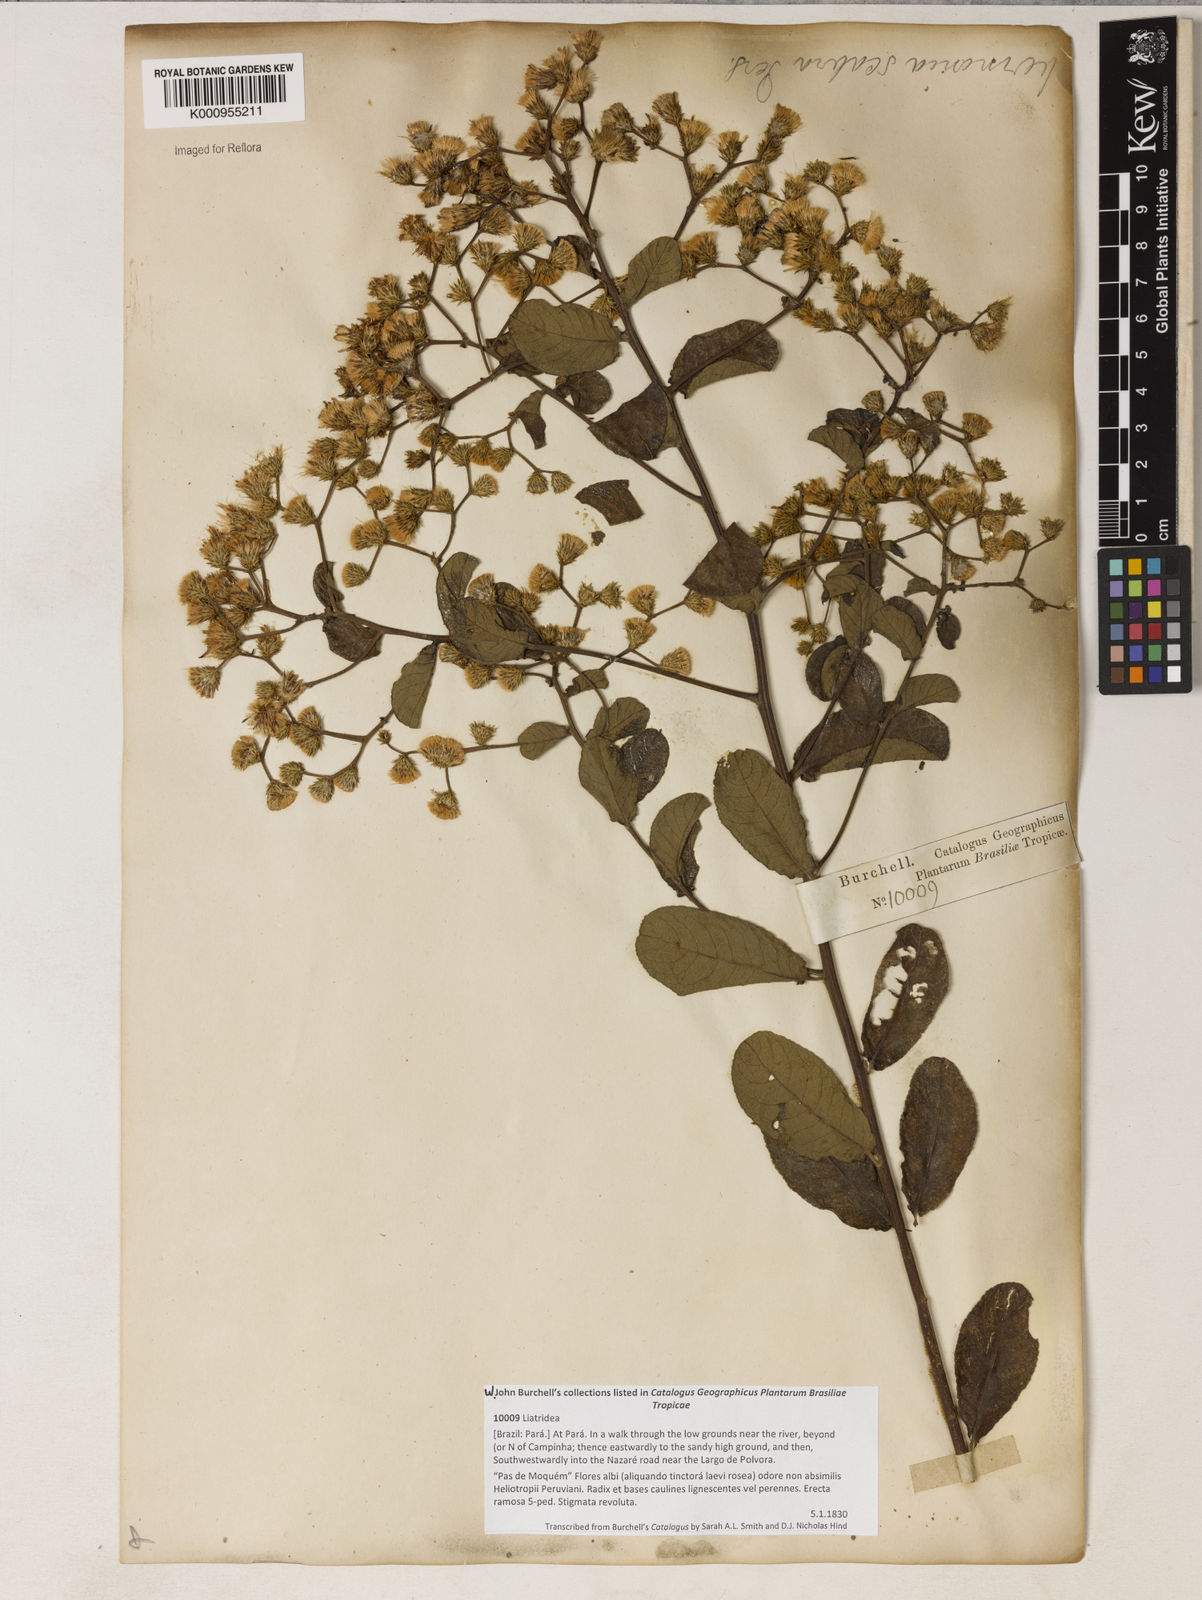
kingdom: Plantae
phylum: Tracheophyta
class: Magnoliopsida
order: Asterales
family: Asteraceae
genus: Vernonanthura
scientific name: Vernonanthura brasiliana
